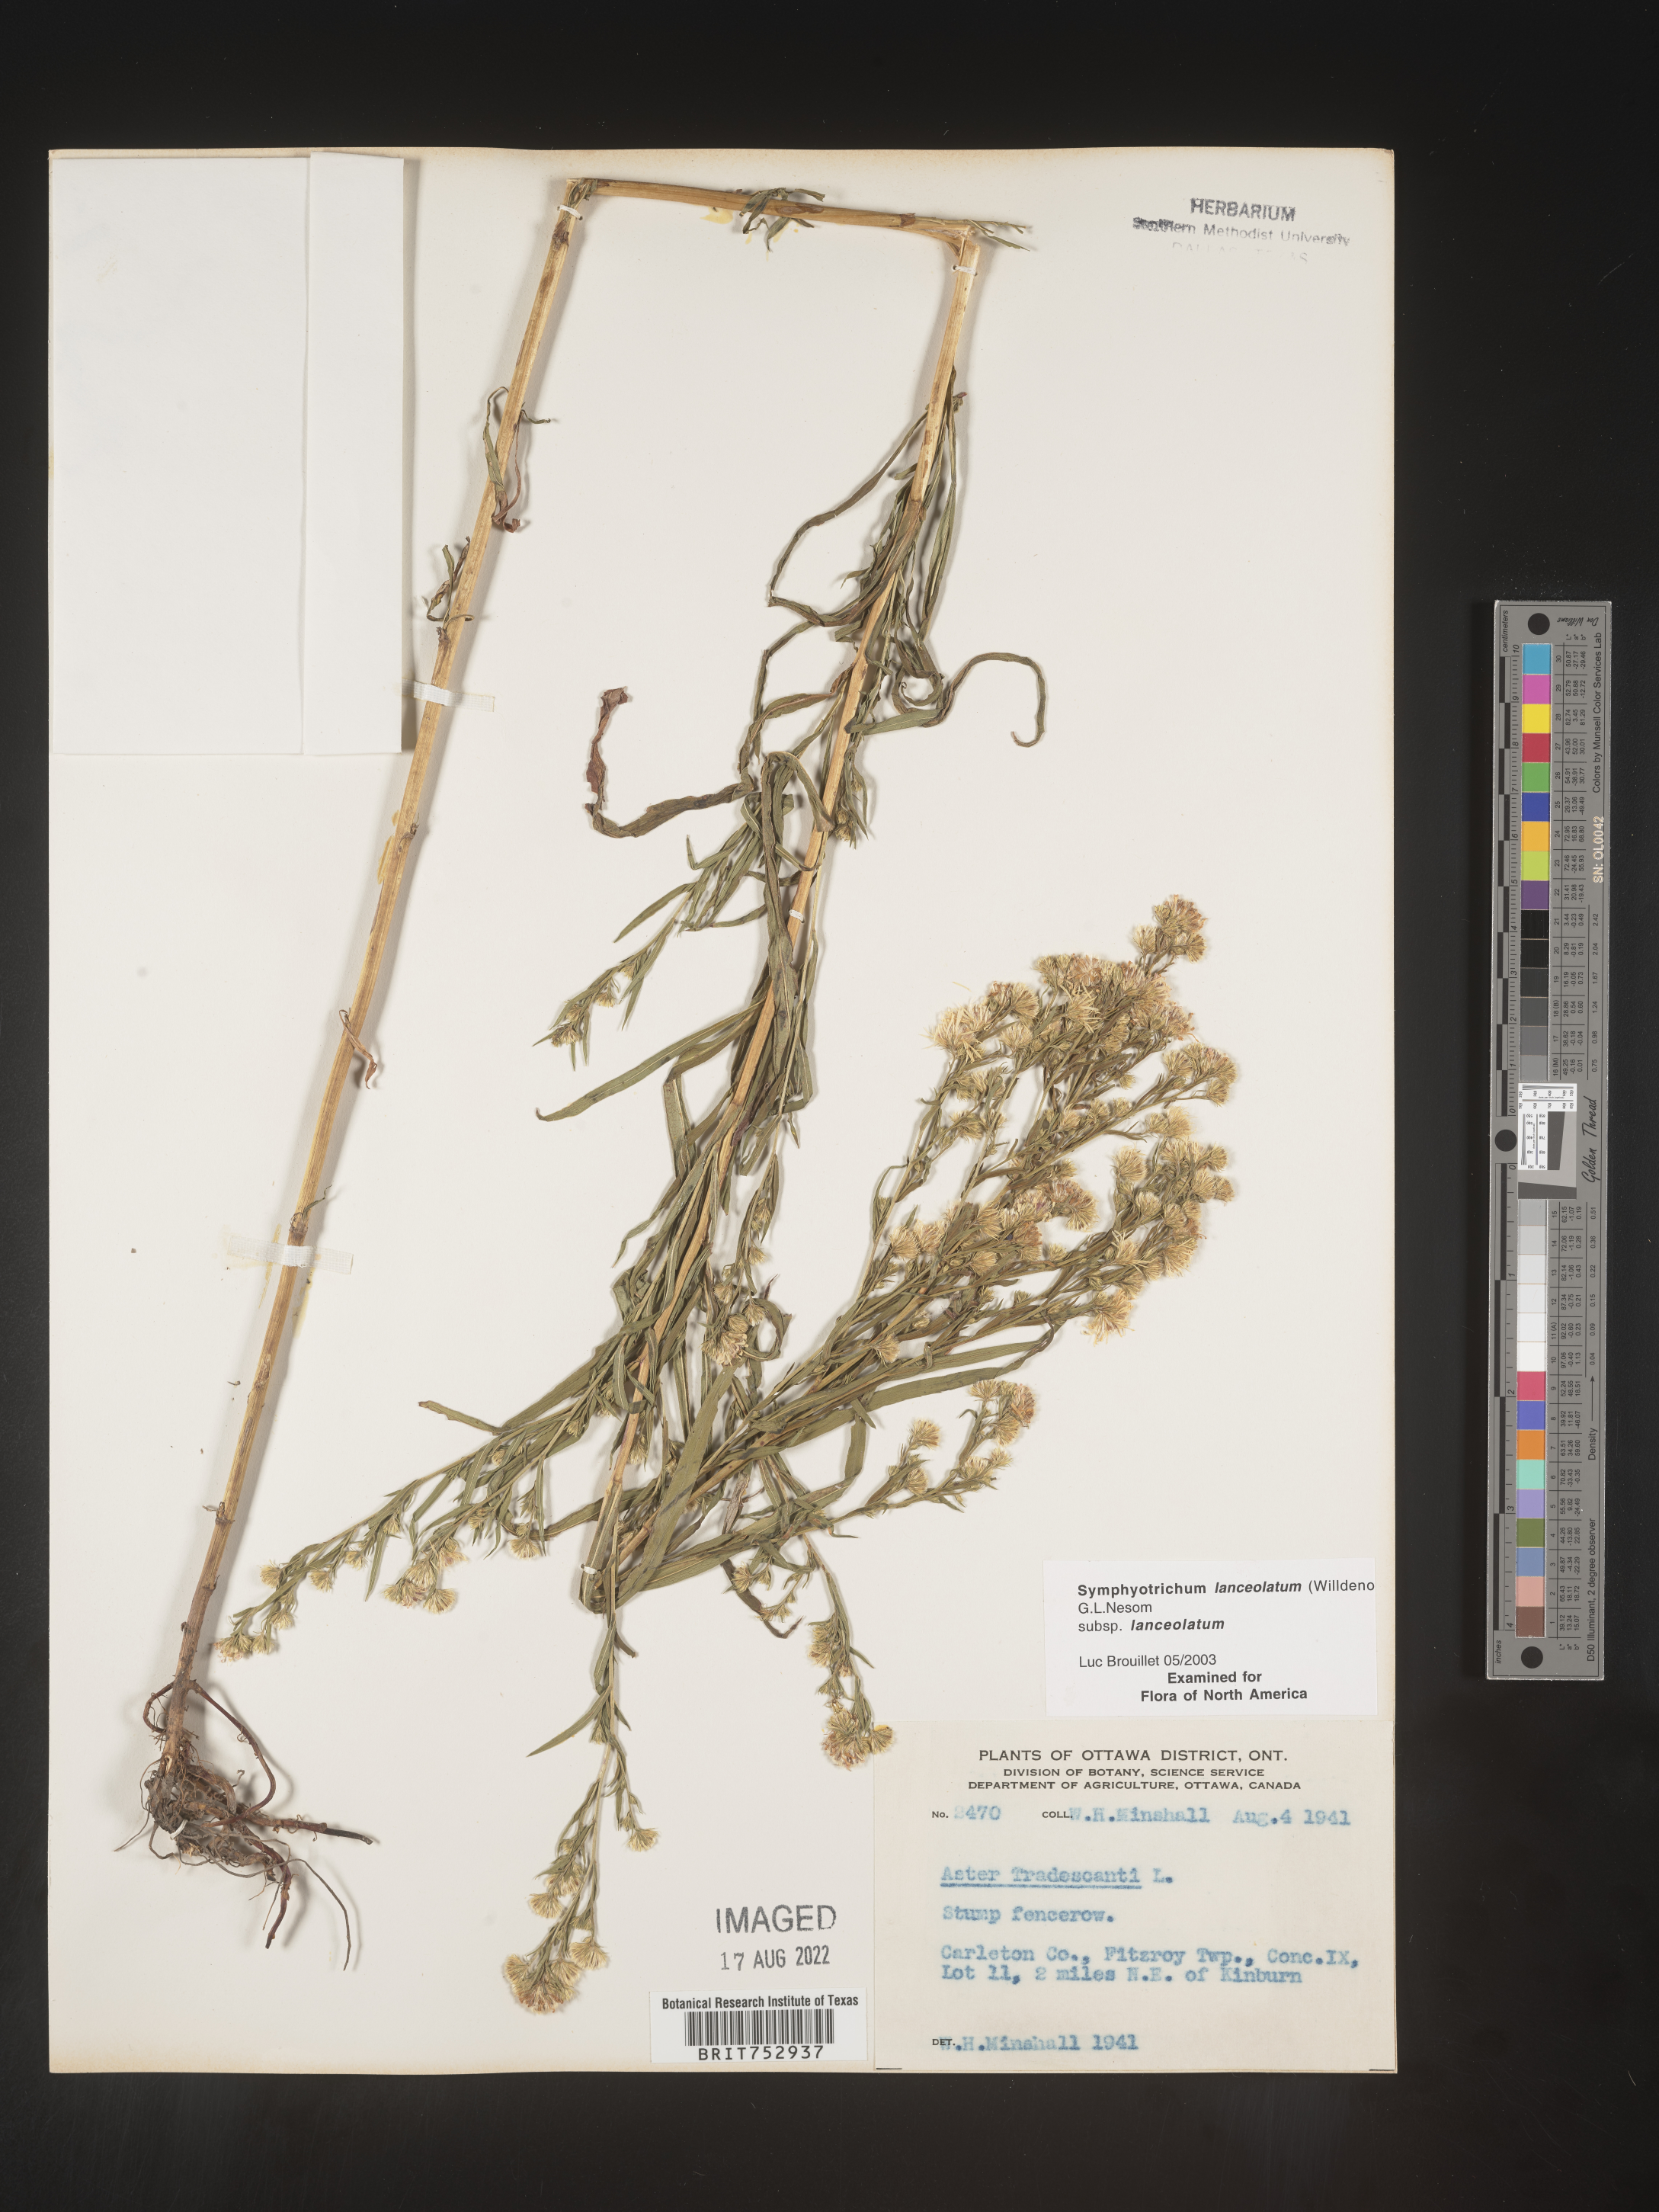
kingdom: Plantae
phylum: Tracheophyta
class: Magnoliopsida
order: Asterales
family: Asteraceae
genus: Symphyotrichum
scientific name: Symphyotrichum lanceolatum
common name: Panicled aster
